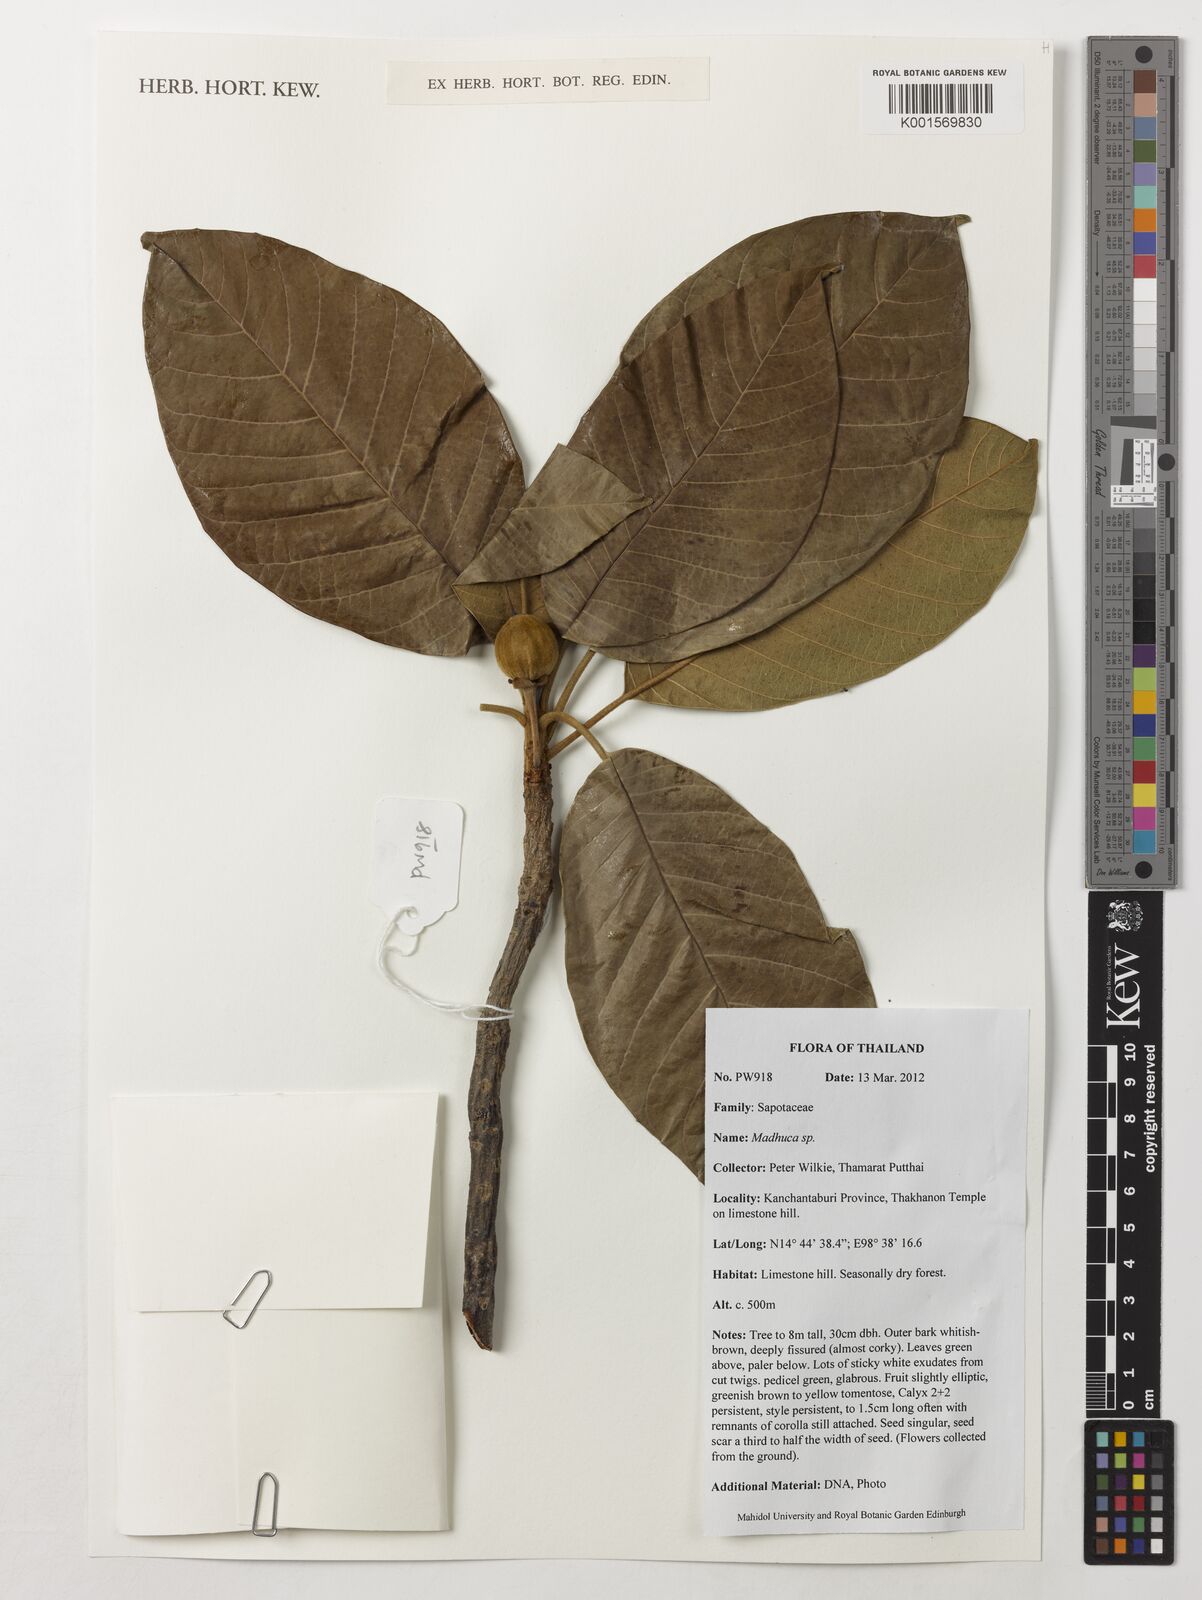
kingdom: Plantae
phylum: Tracheophyta
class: Magnoliopsida
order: Ericales
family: Sapotaceae
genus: Madhuca
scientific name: Madhuca
